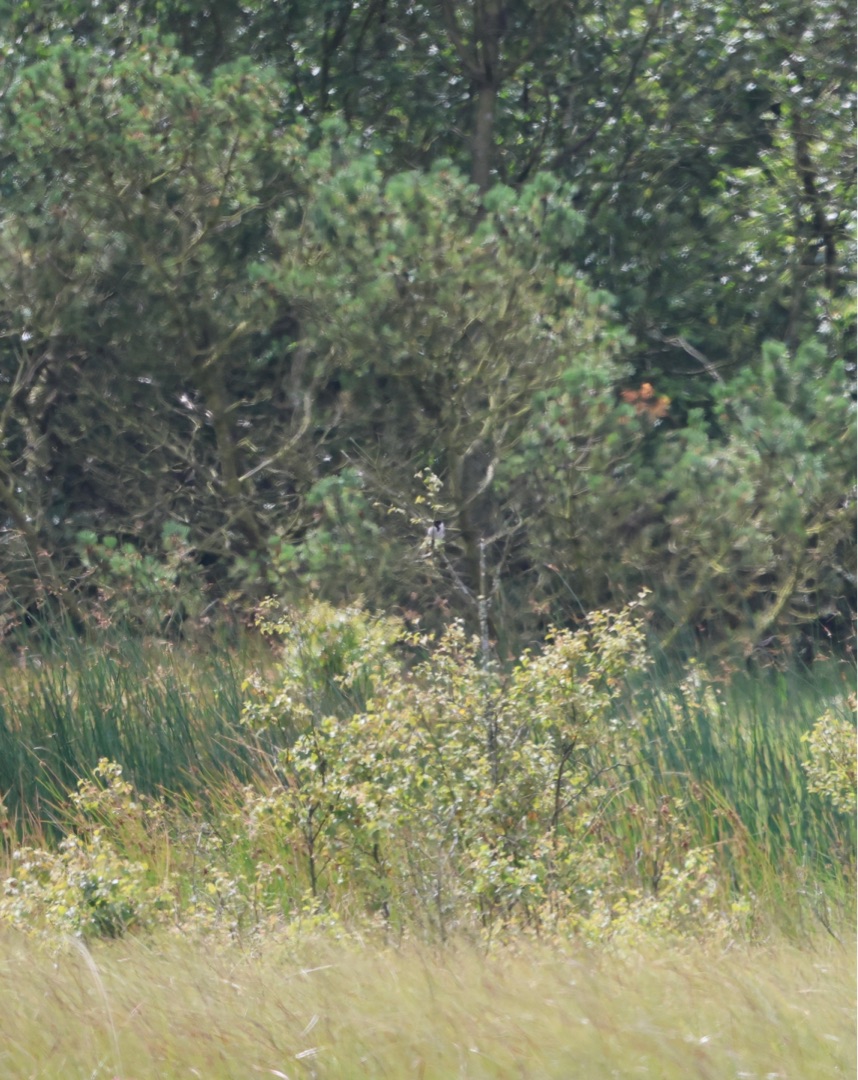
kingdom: Animalia
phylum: Chordata
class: Aves
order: Passeriformes
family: Emberizidae
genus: Emberiza
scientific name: Emberiza schoeniclus
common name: Rørspurv
